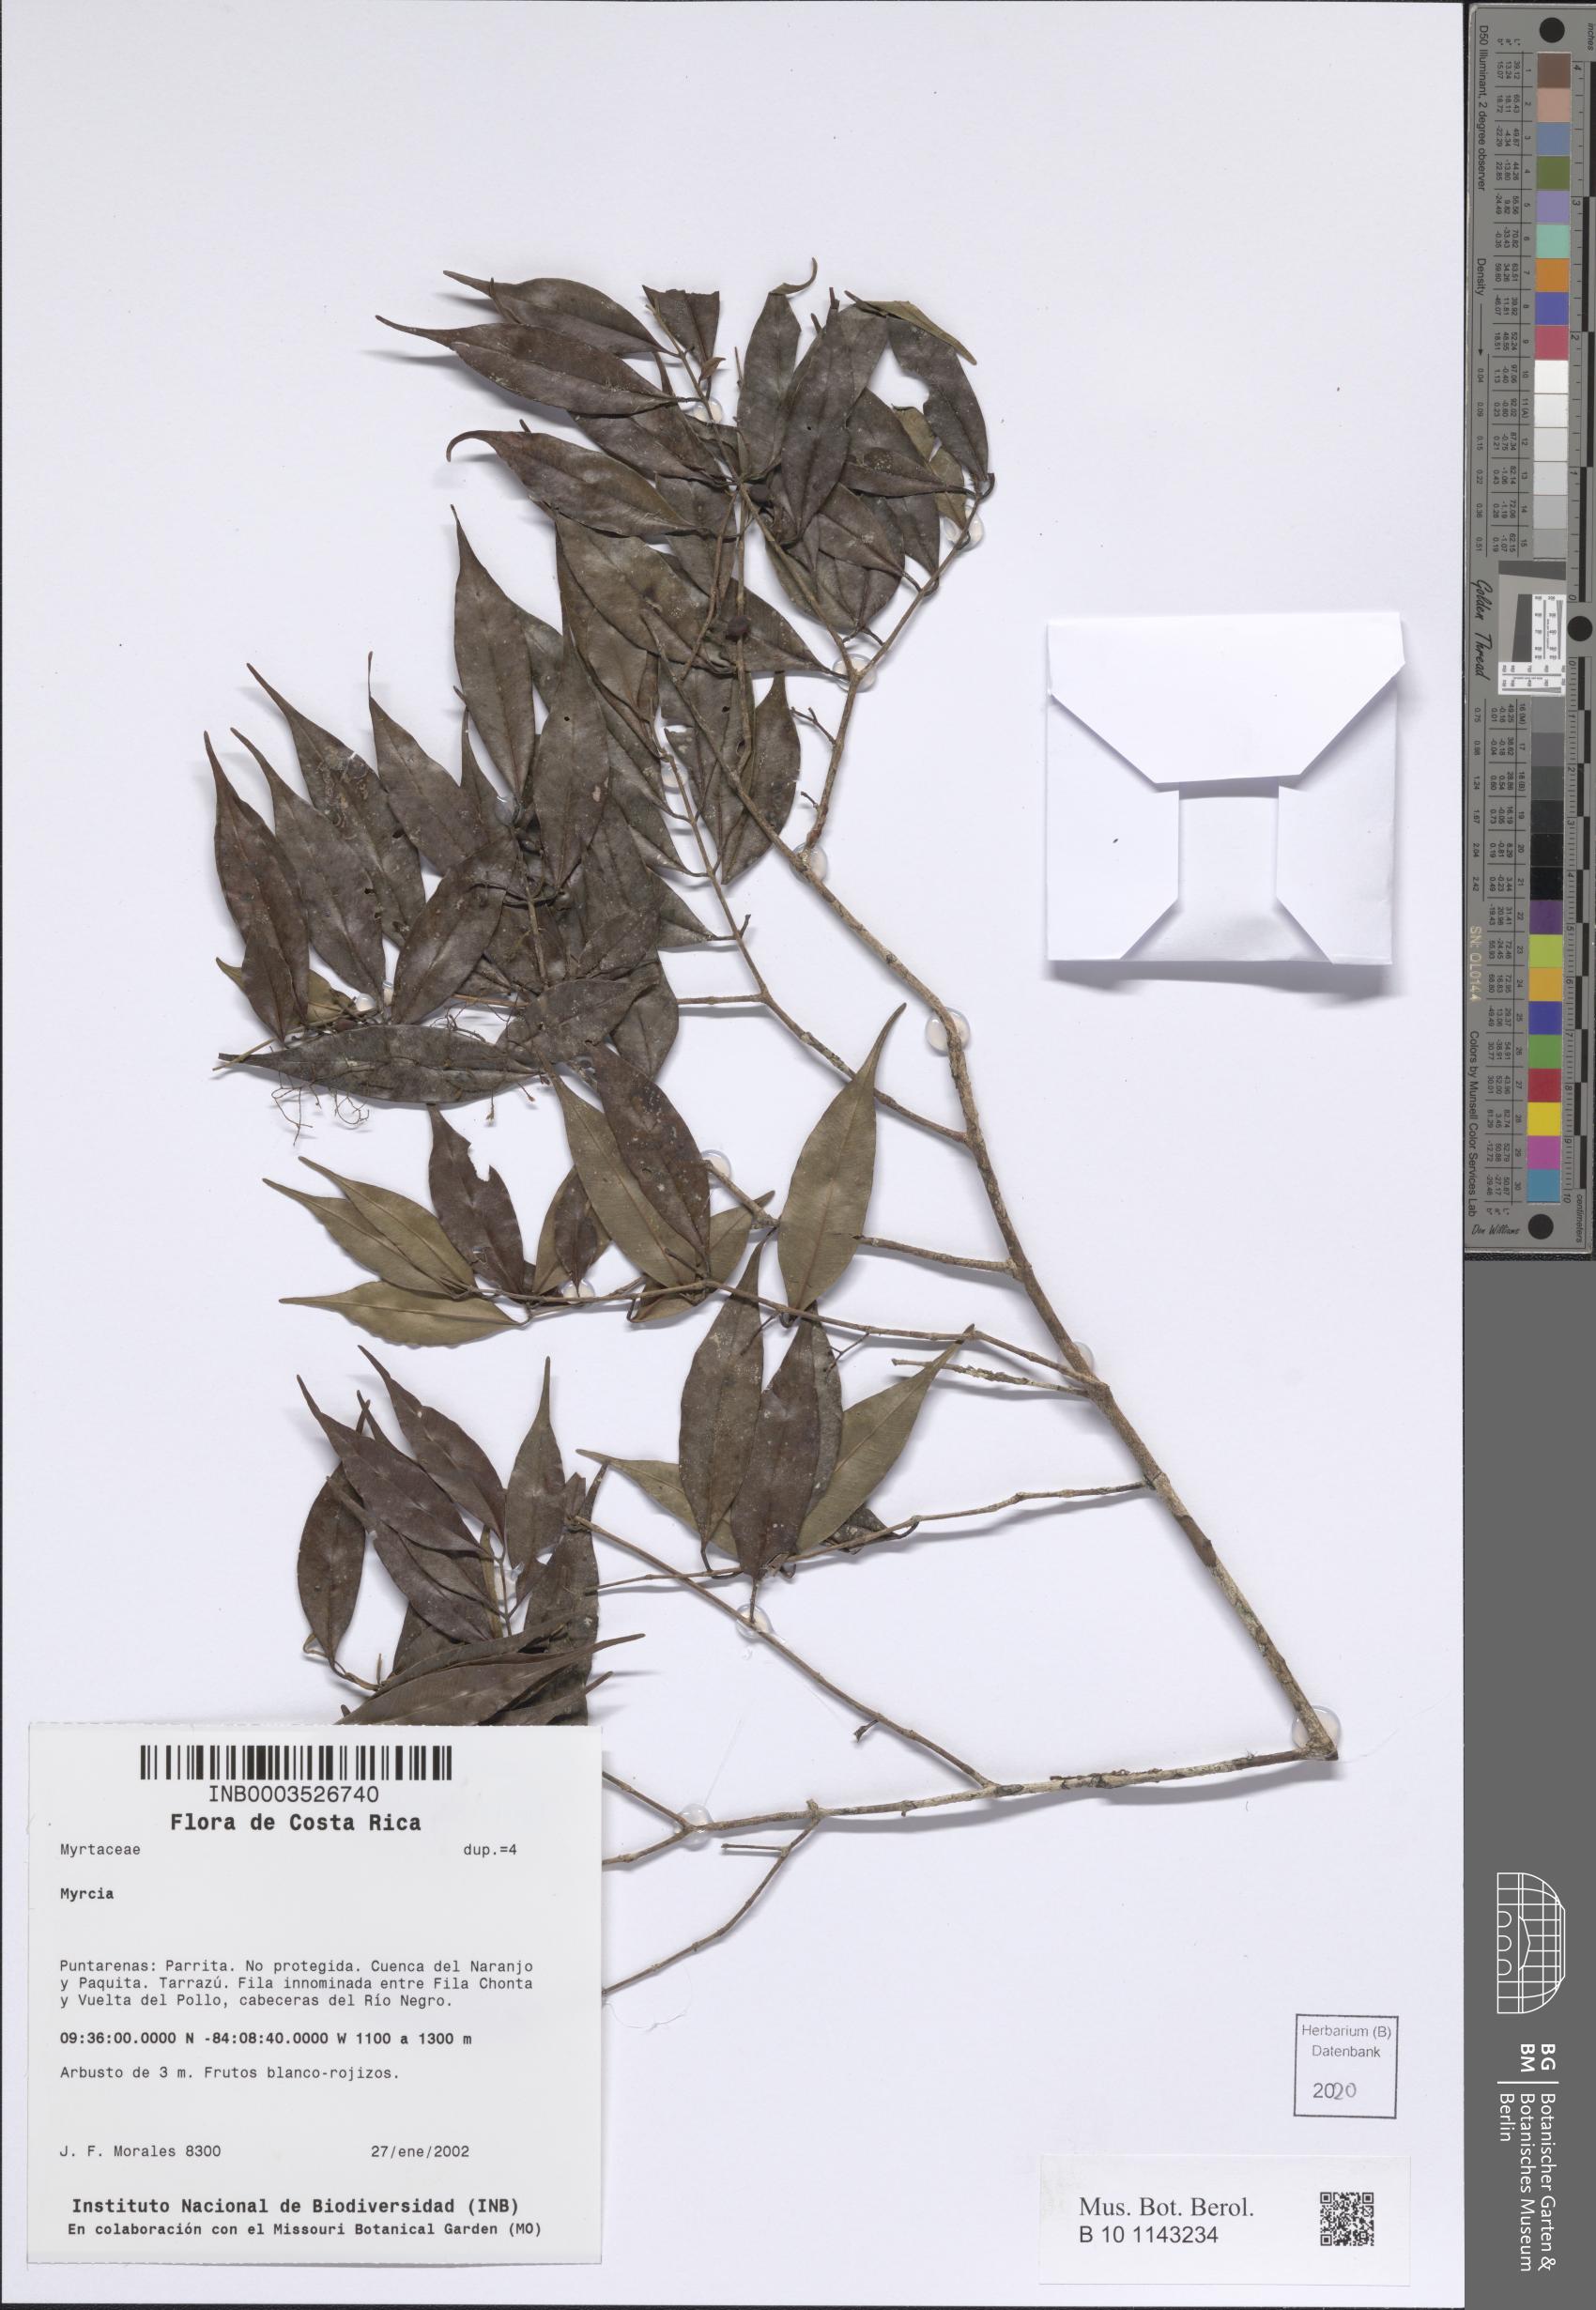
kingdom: Plantae
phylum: Tracheophyta
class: Magnoliopsida
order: Myrtales
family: Myrtaceae
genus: Myrcia
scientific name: Myrcia
